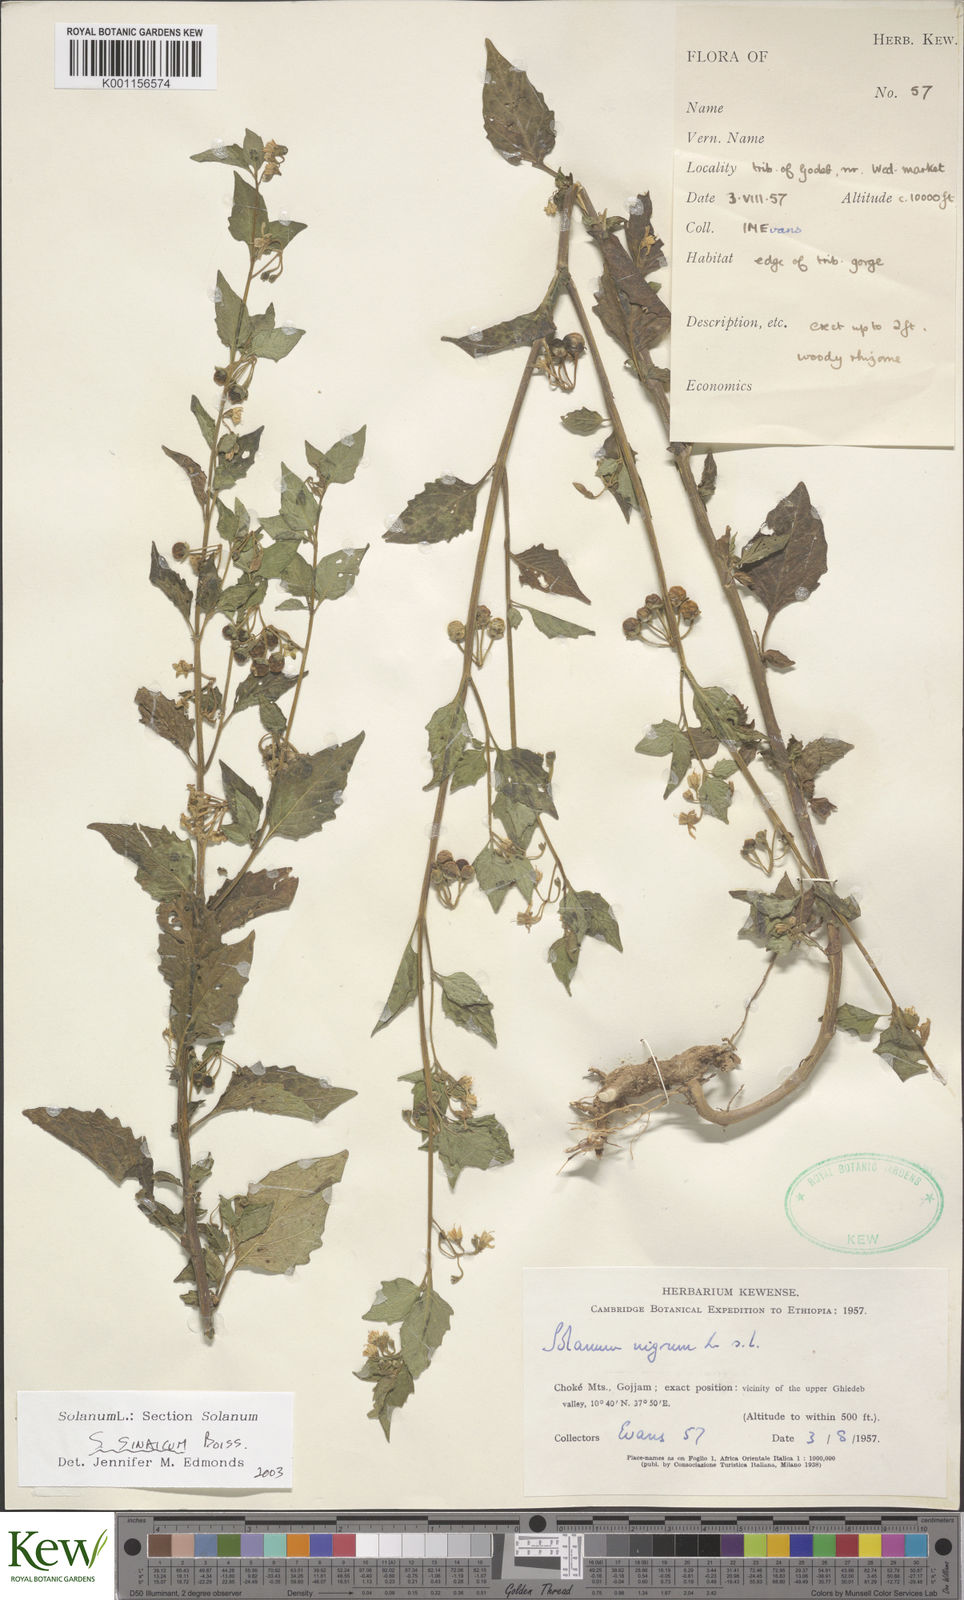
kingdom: Plantae
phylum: Tracheophyta
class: Magnoliopsida
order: Solanales
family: Solanaceae
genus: Solanum
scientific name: Solanum villosum
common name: Red nightshade
